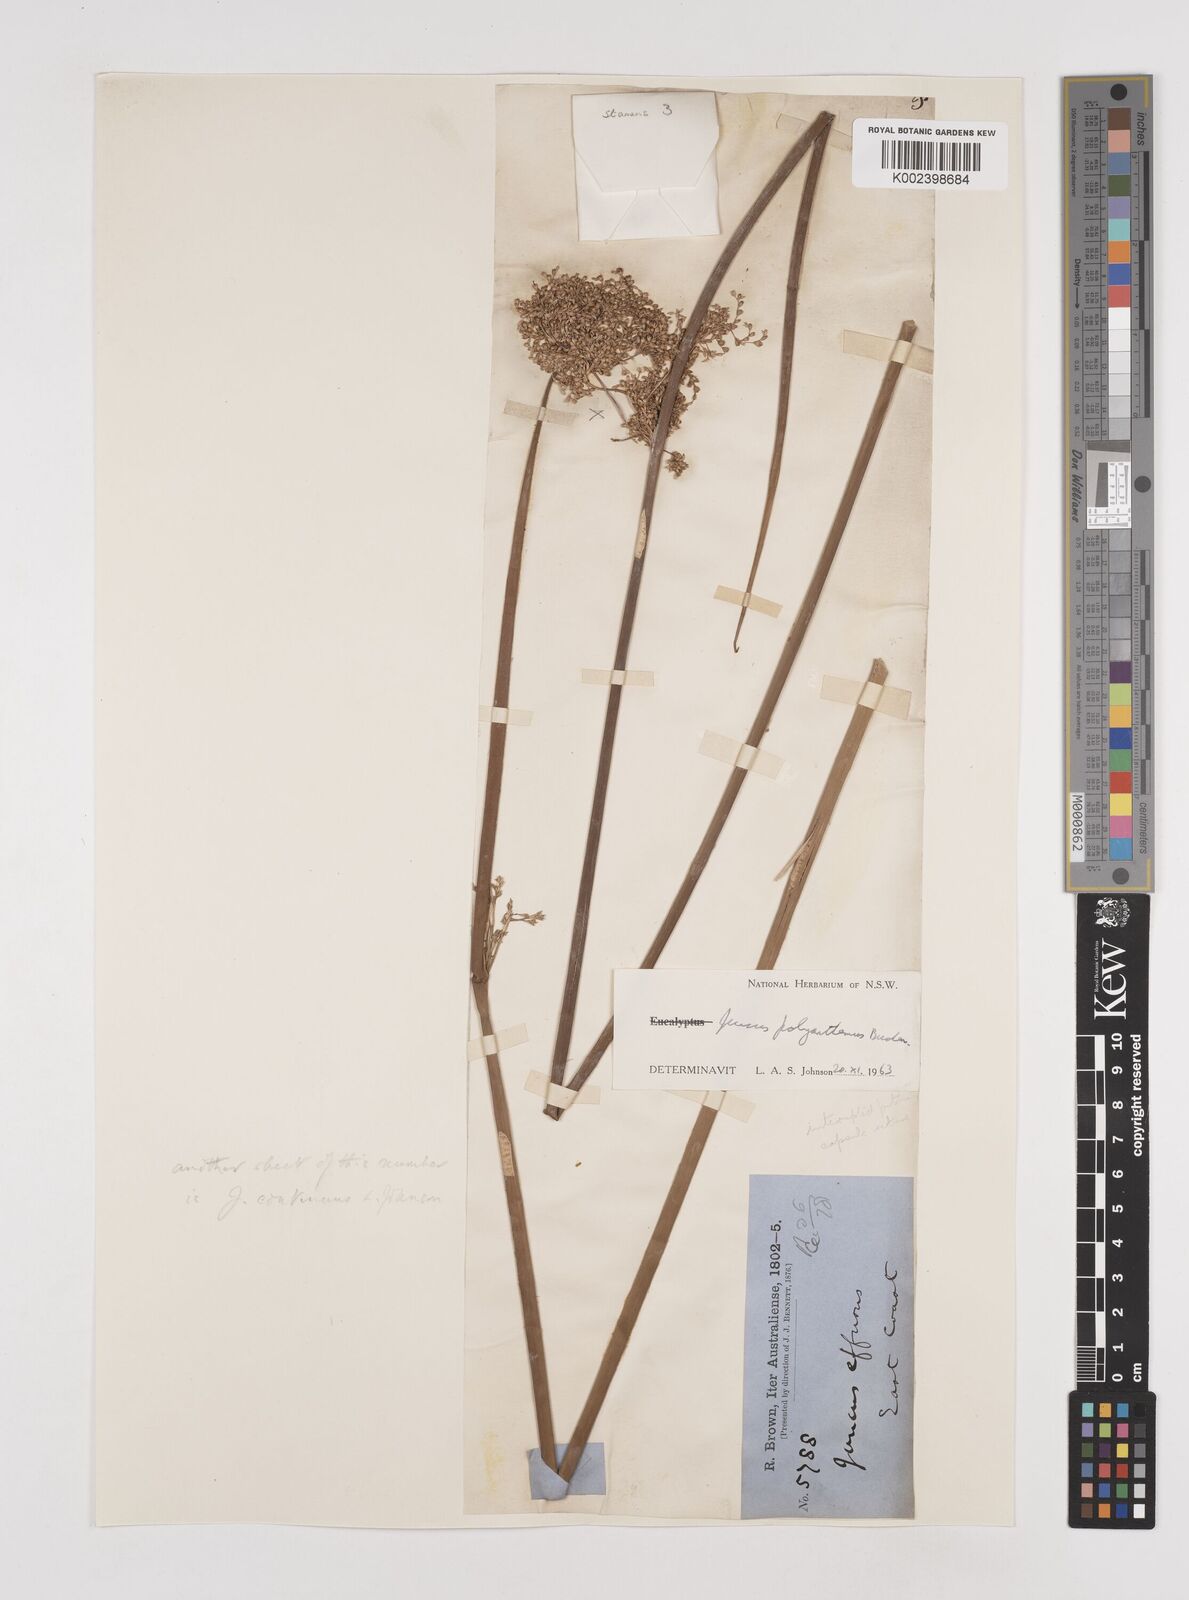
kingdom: Plantae
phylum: Tracheophyta
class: Liliopsida
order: Poales
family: Juncaceae
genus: Juncus
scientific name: Juncus polyanthemus
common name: Manyflower rush
